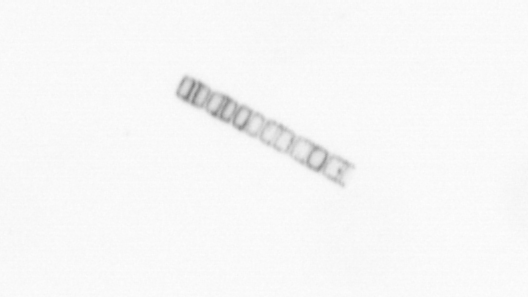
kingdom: Chromista
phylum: Ochrophyta
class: Bacillariophyceae
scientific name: Bacillariophyceae
